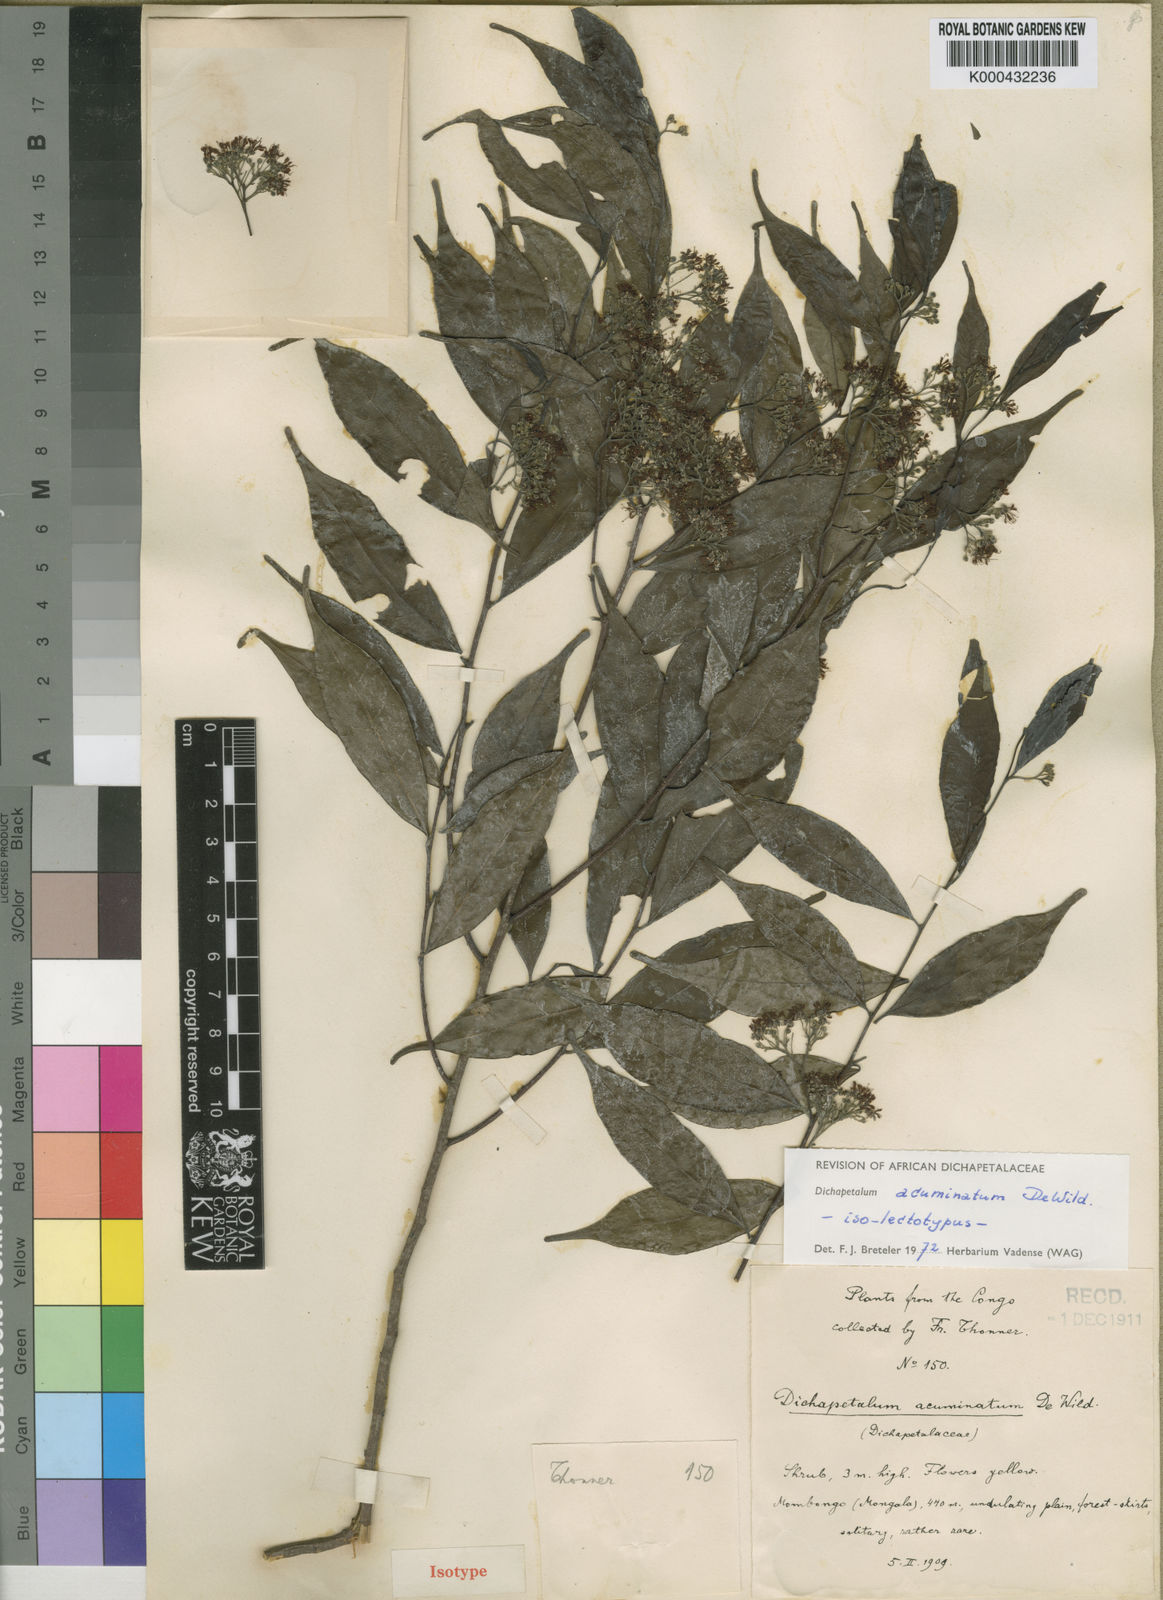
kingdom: Plantae
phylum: Tracheophyta
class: Magnoliopsida
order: Malpighiales
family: Dichapetalaceae
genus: Dichapetalum
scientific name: Dichapetalum acuminatum
